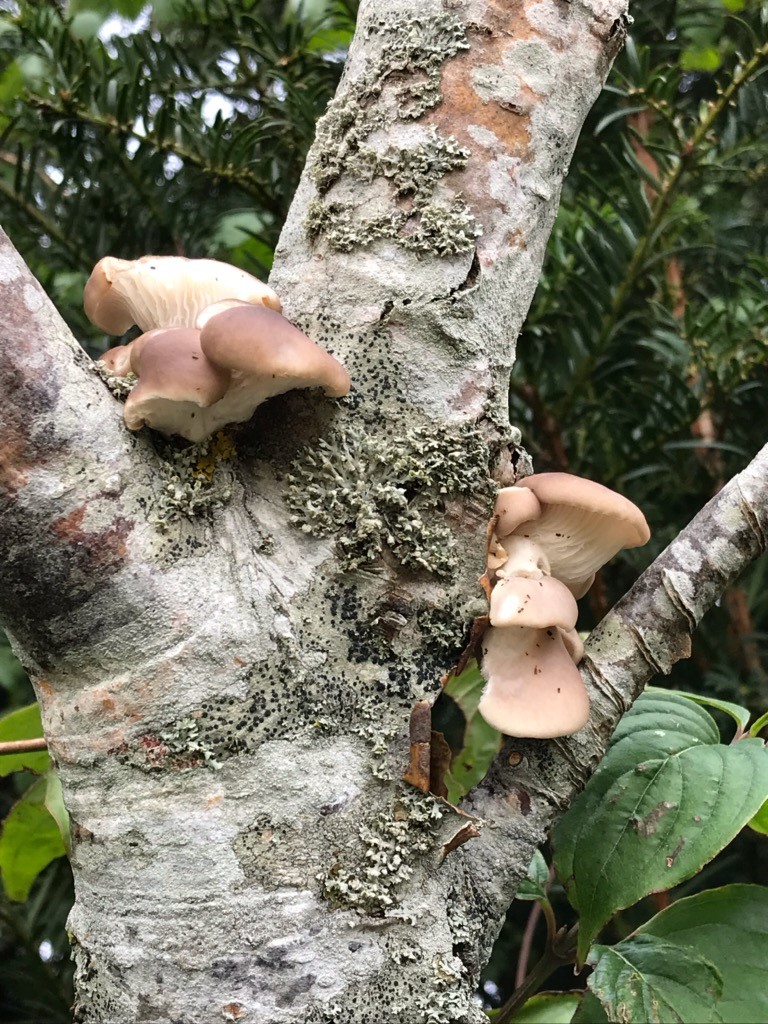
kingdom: Fungi
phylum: Basidiomycota
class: Agaricomycetes
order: Agaricales
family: Pleurotaceae
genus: Pleurotus
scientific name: Pleurotus ostreatus
